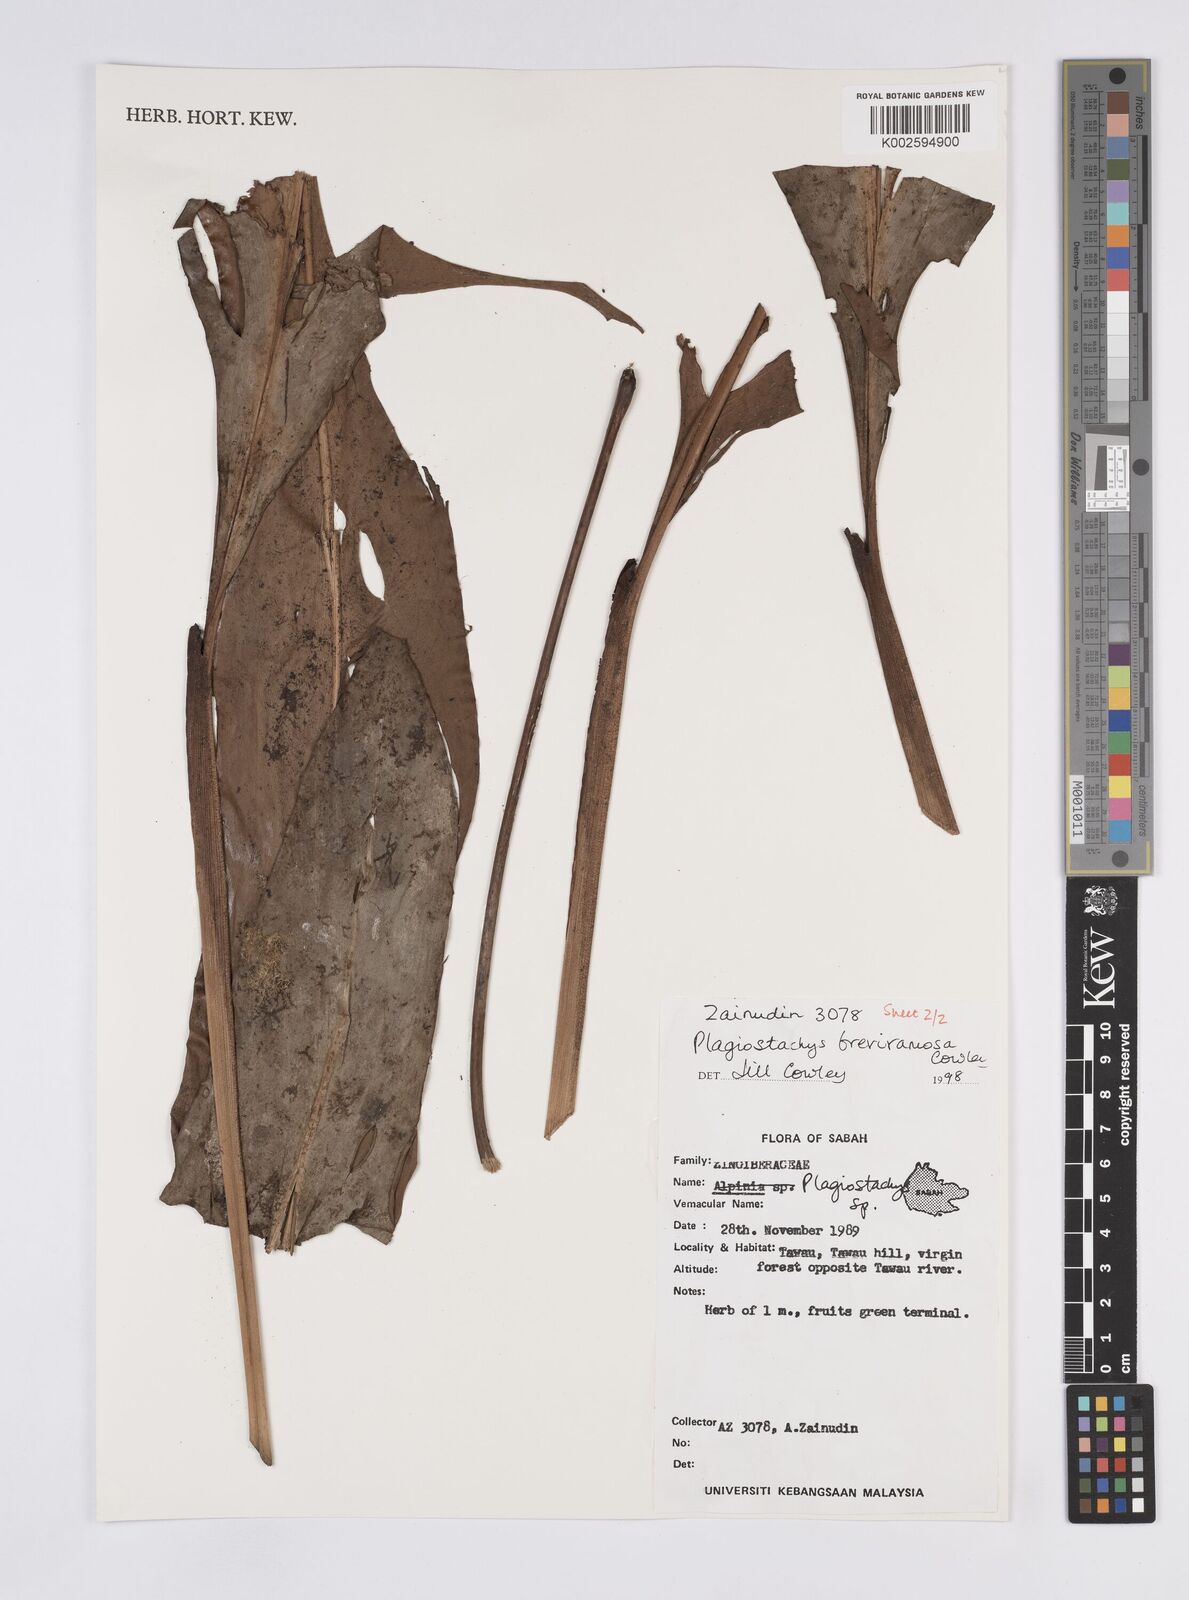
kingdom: Plantae
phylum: Tracheophyta
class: Liliopsida
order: Zingiberales
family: Zingiberaceae
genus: Plagiostachys
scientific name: Plagiostachys breviramosa
